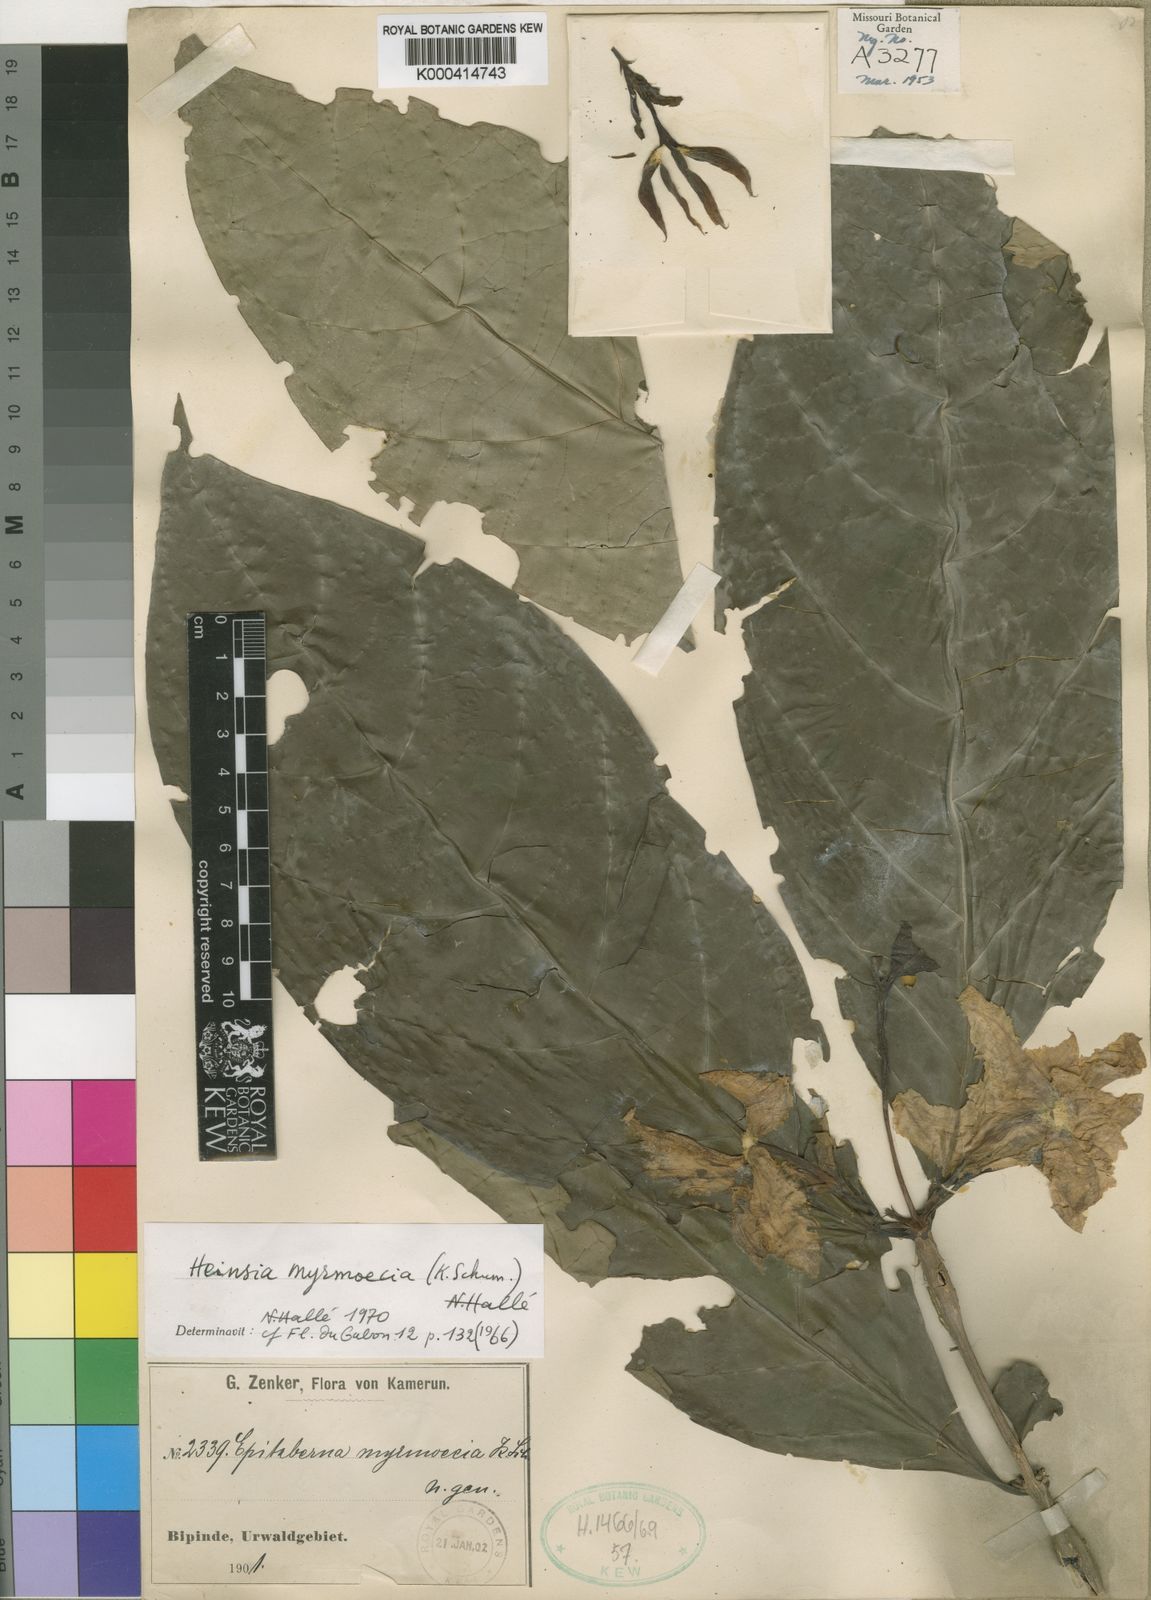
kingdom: Plantae
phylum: Tracheophyta
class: Magnoliopsida
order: Gentianales
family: Rubiaceae
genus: Heinsia
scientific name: Heinsia
